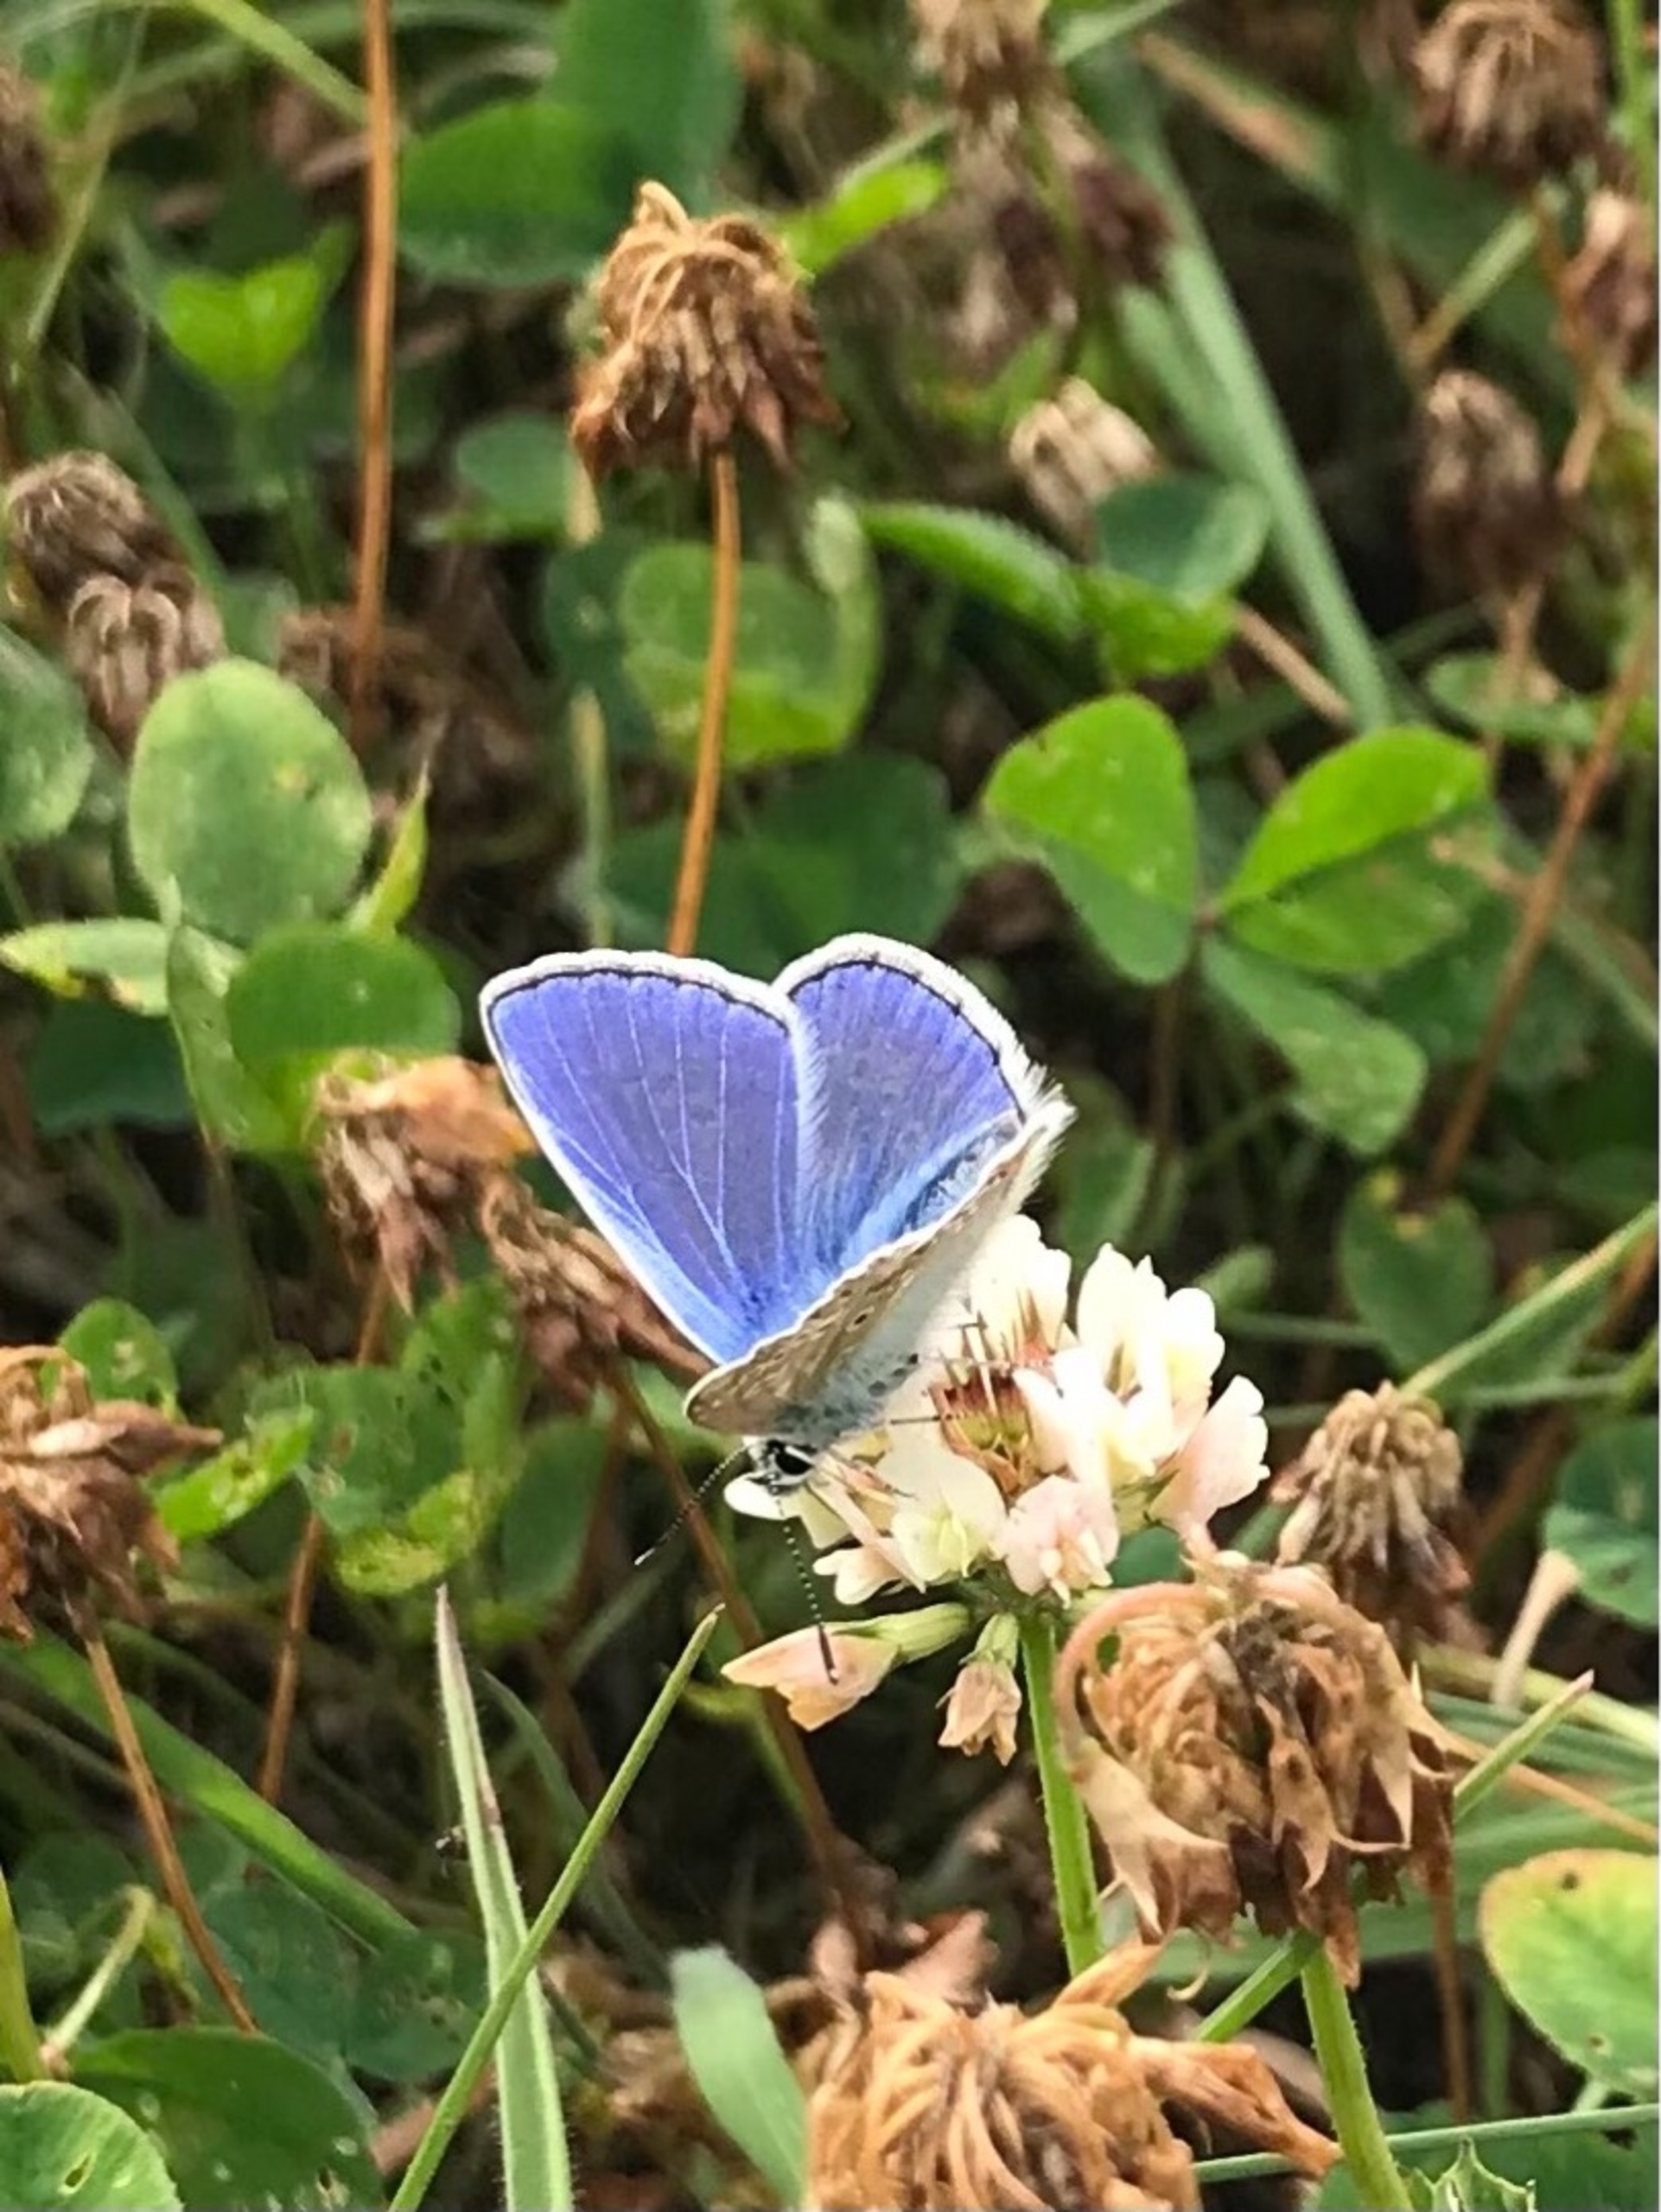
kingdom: Animalia
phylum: Arthropoda
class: Insecta
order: Lepidoptera
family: Lycaenidae
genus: Polyommatus
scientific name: Polyommatus icarus
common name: Almindelig blåfugl
